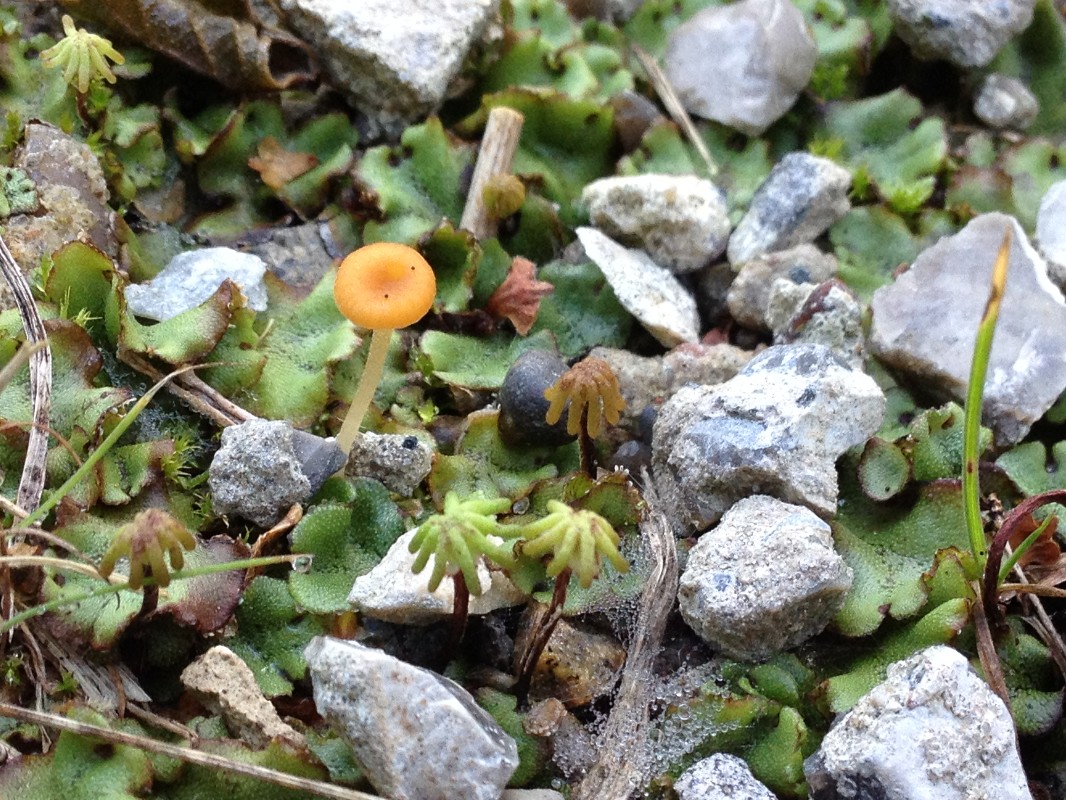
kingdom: Fungi
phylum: Basidiomycota
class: Agaricomycetes
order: Hymenochaetales
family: Rickenellaceae
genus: Loreleia
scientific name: Loreleia marchantiae
